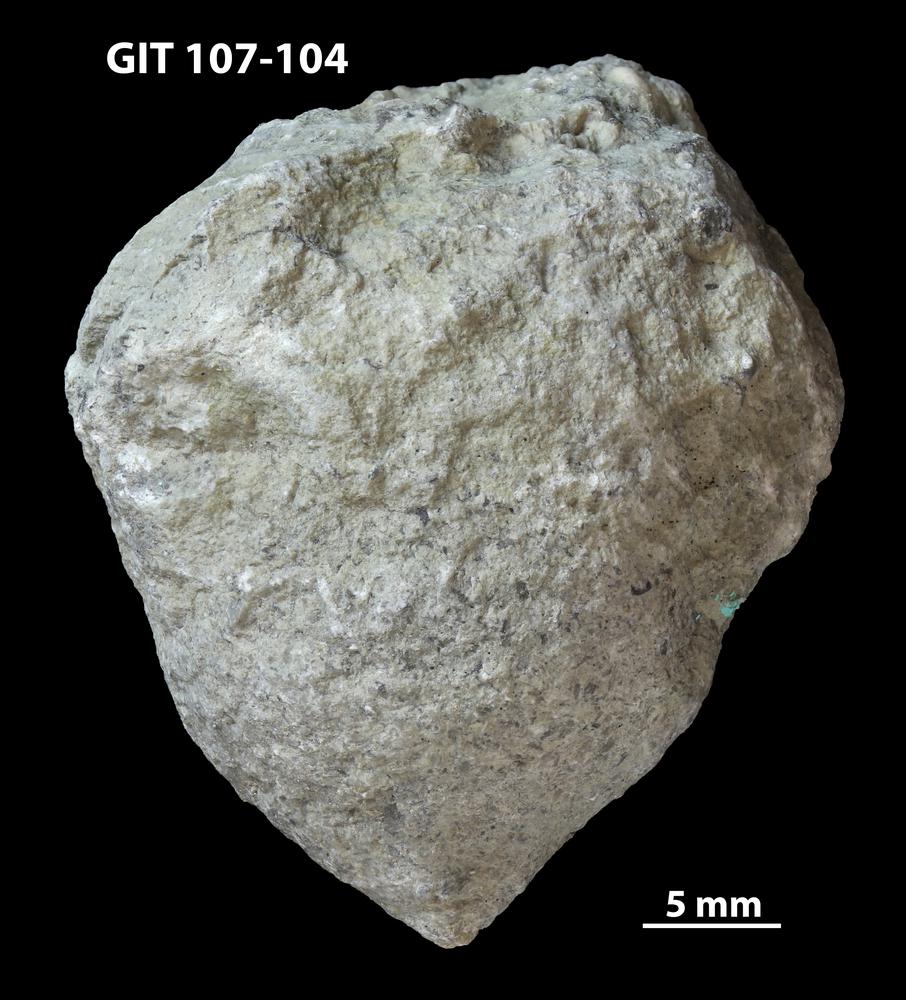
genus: Amphorichnus
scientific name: Amphorichnus
